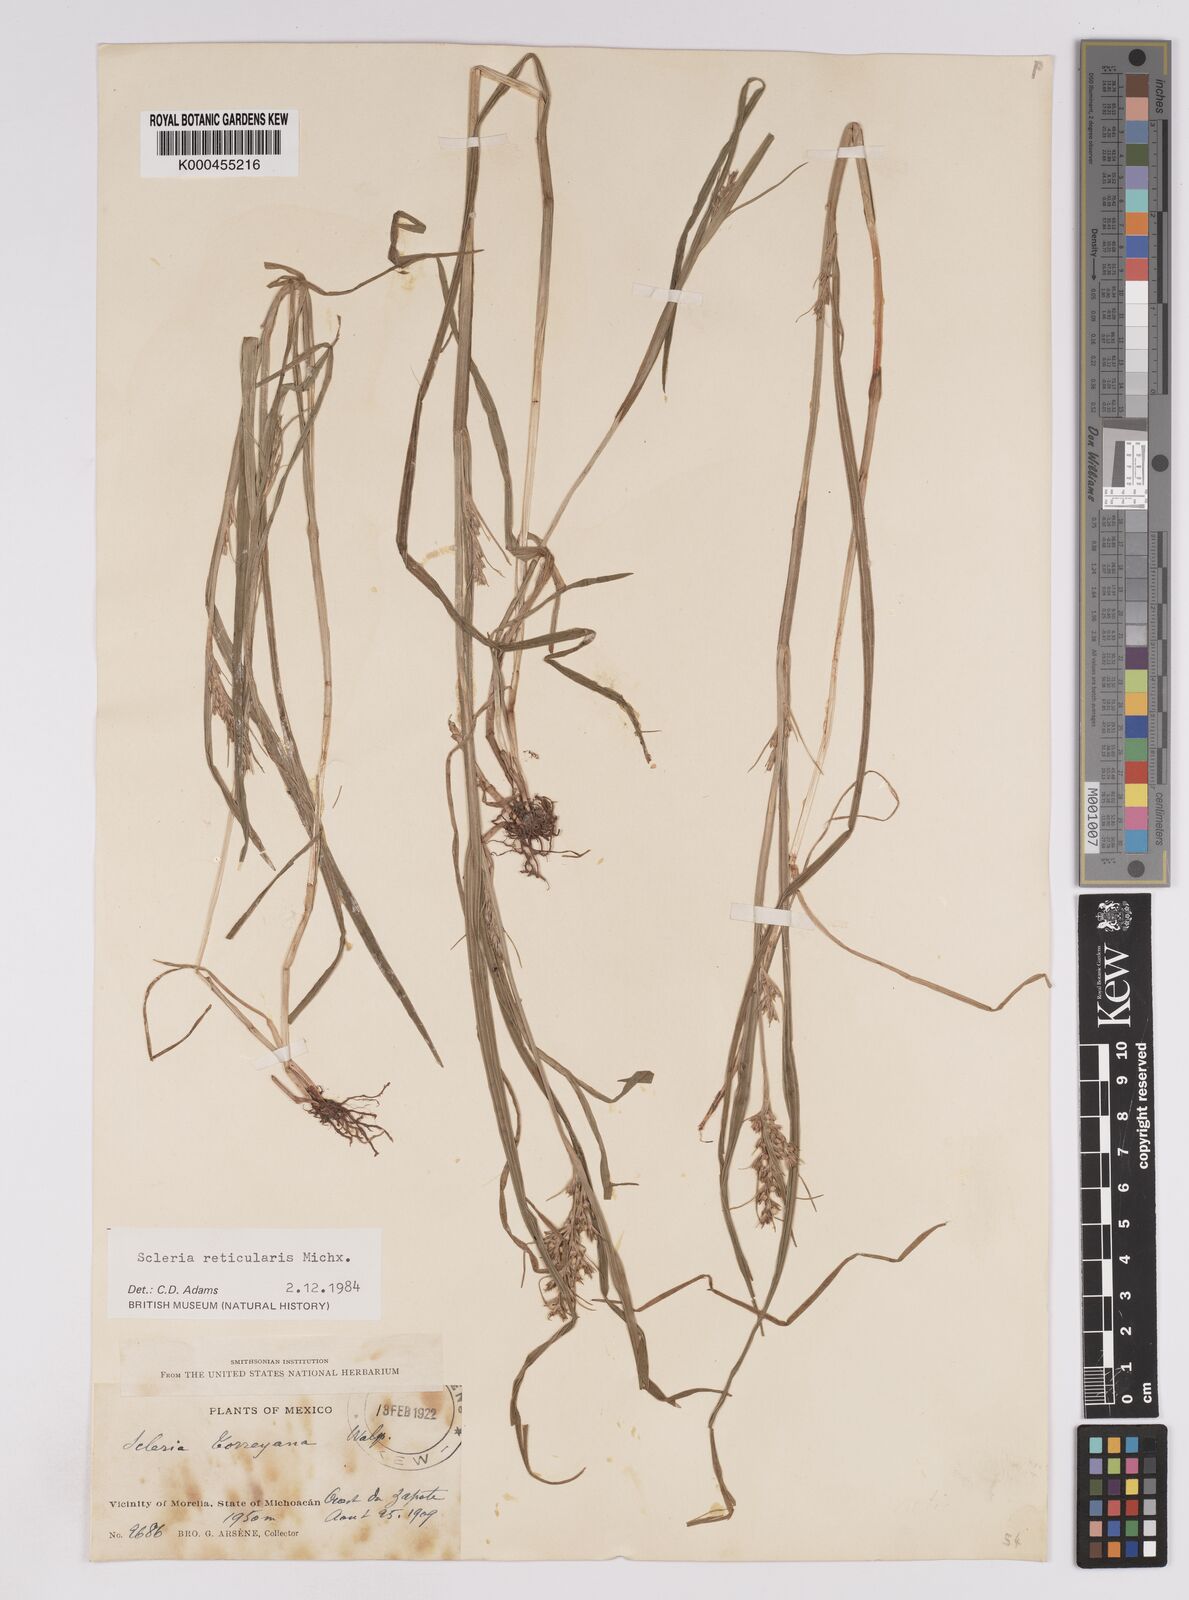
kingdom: Plantae
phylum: Tracheophyta
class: Liliopsida
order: Poales
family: Cyperaceae
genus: Scleria
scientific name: Scleria
